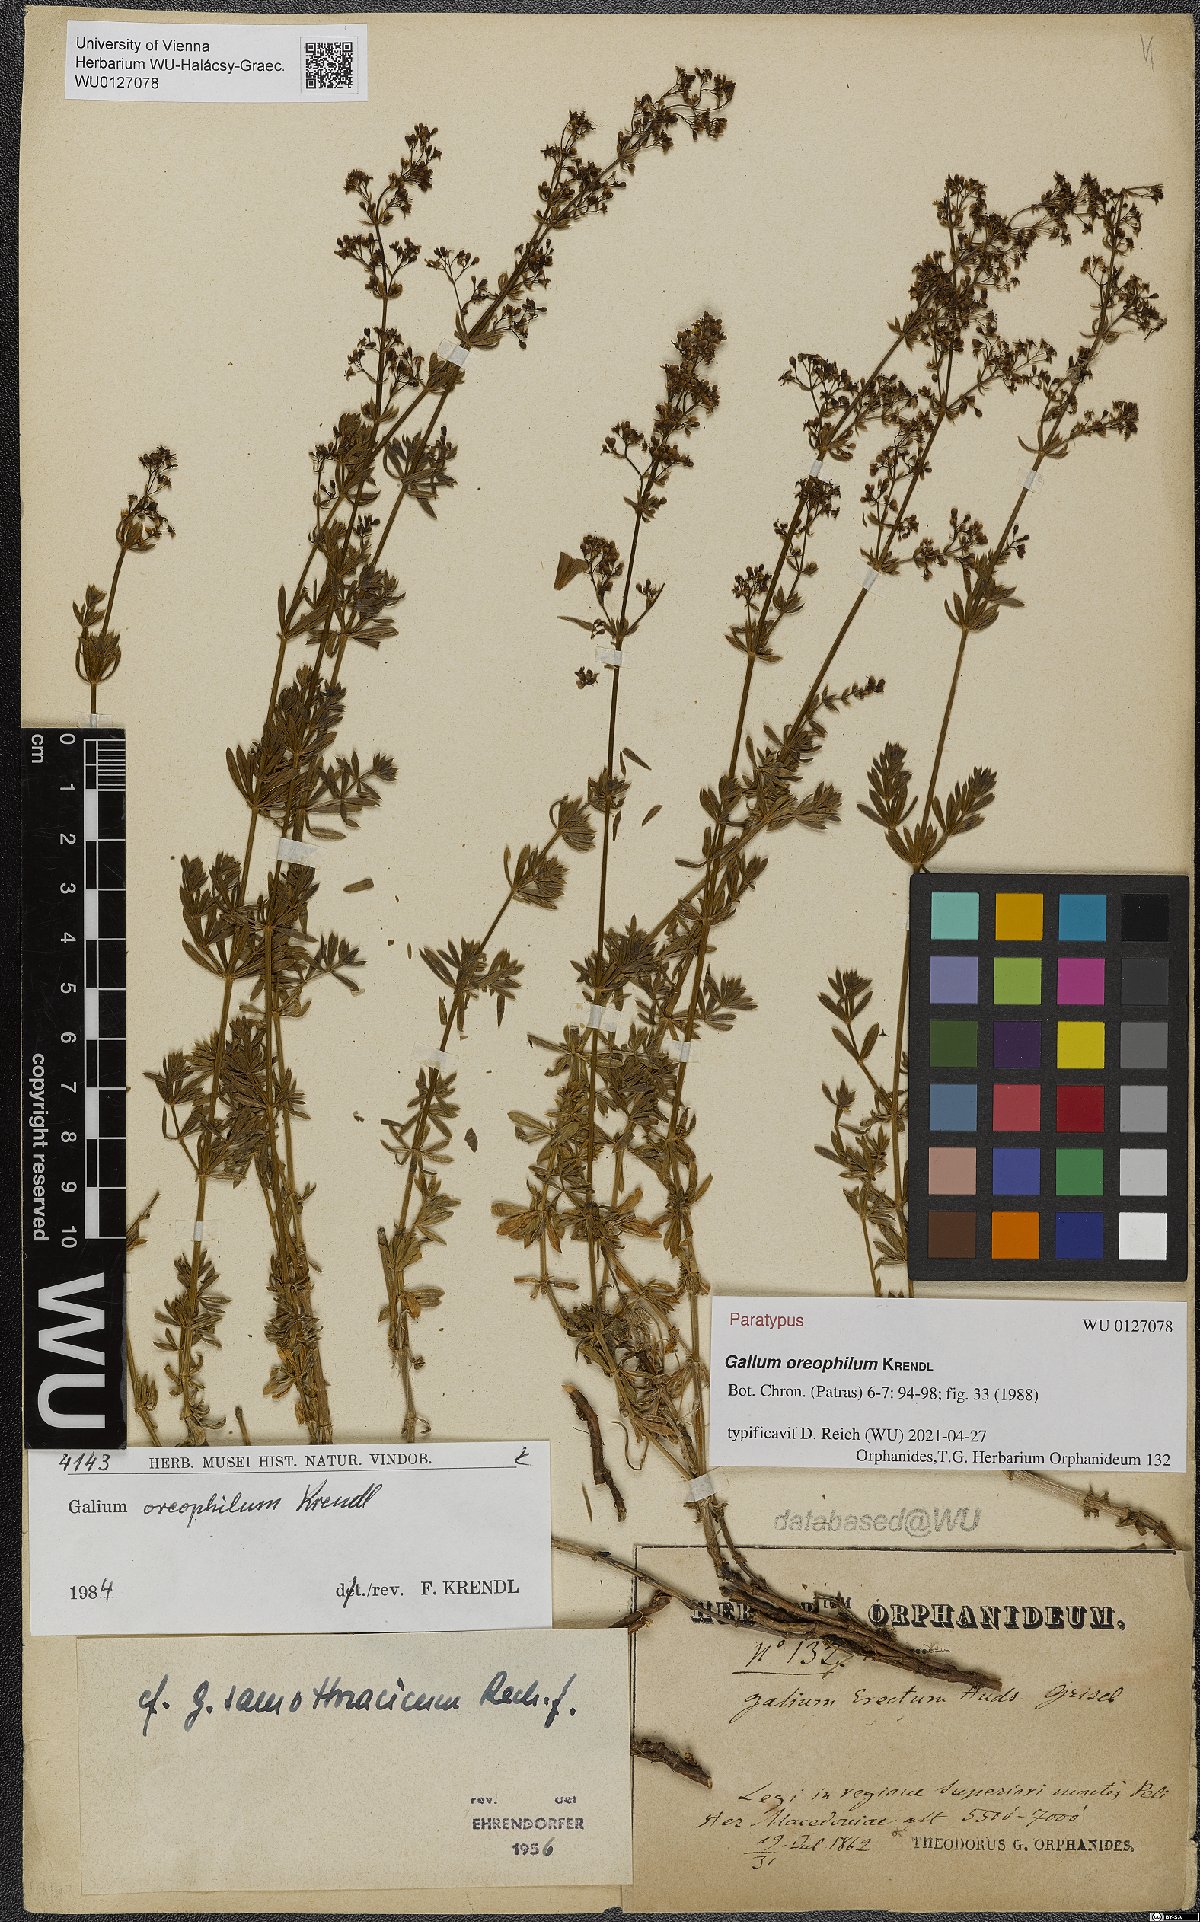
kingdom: Plantae
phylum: Tracheophyta
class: Magnoliopsida
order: Gentianales
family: Rubiaceae
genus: Galium
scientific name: Galium oreophilum
